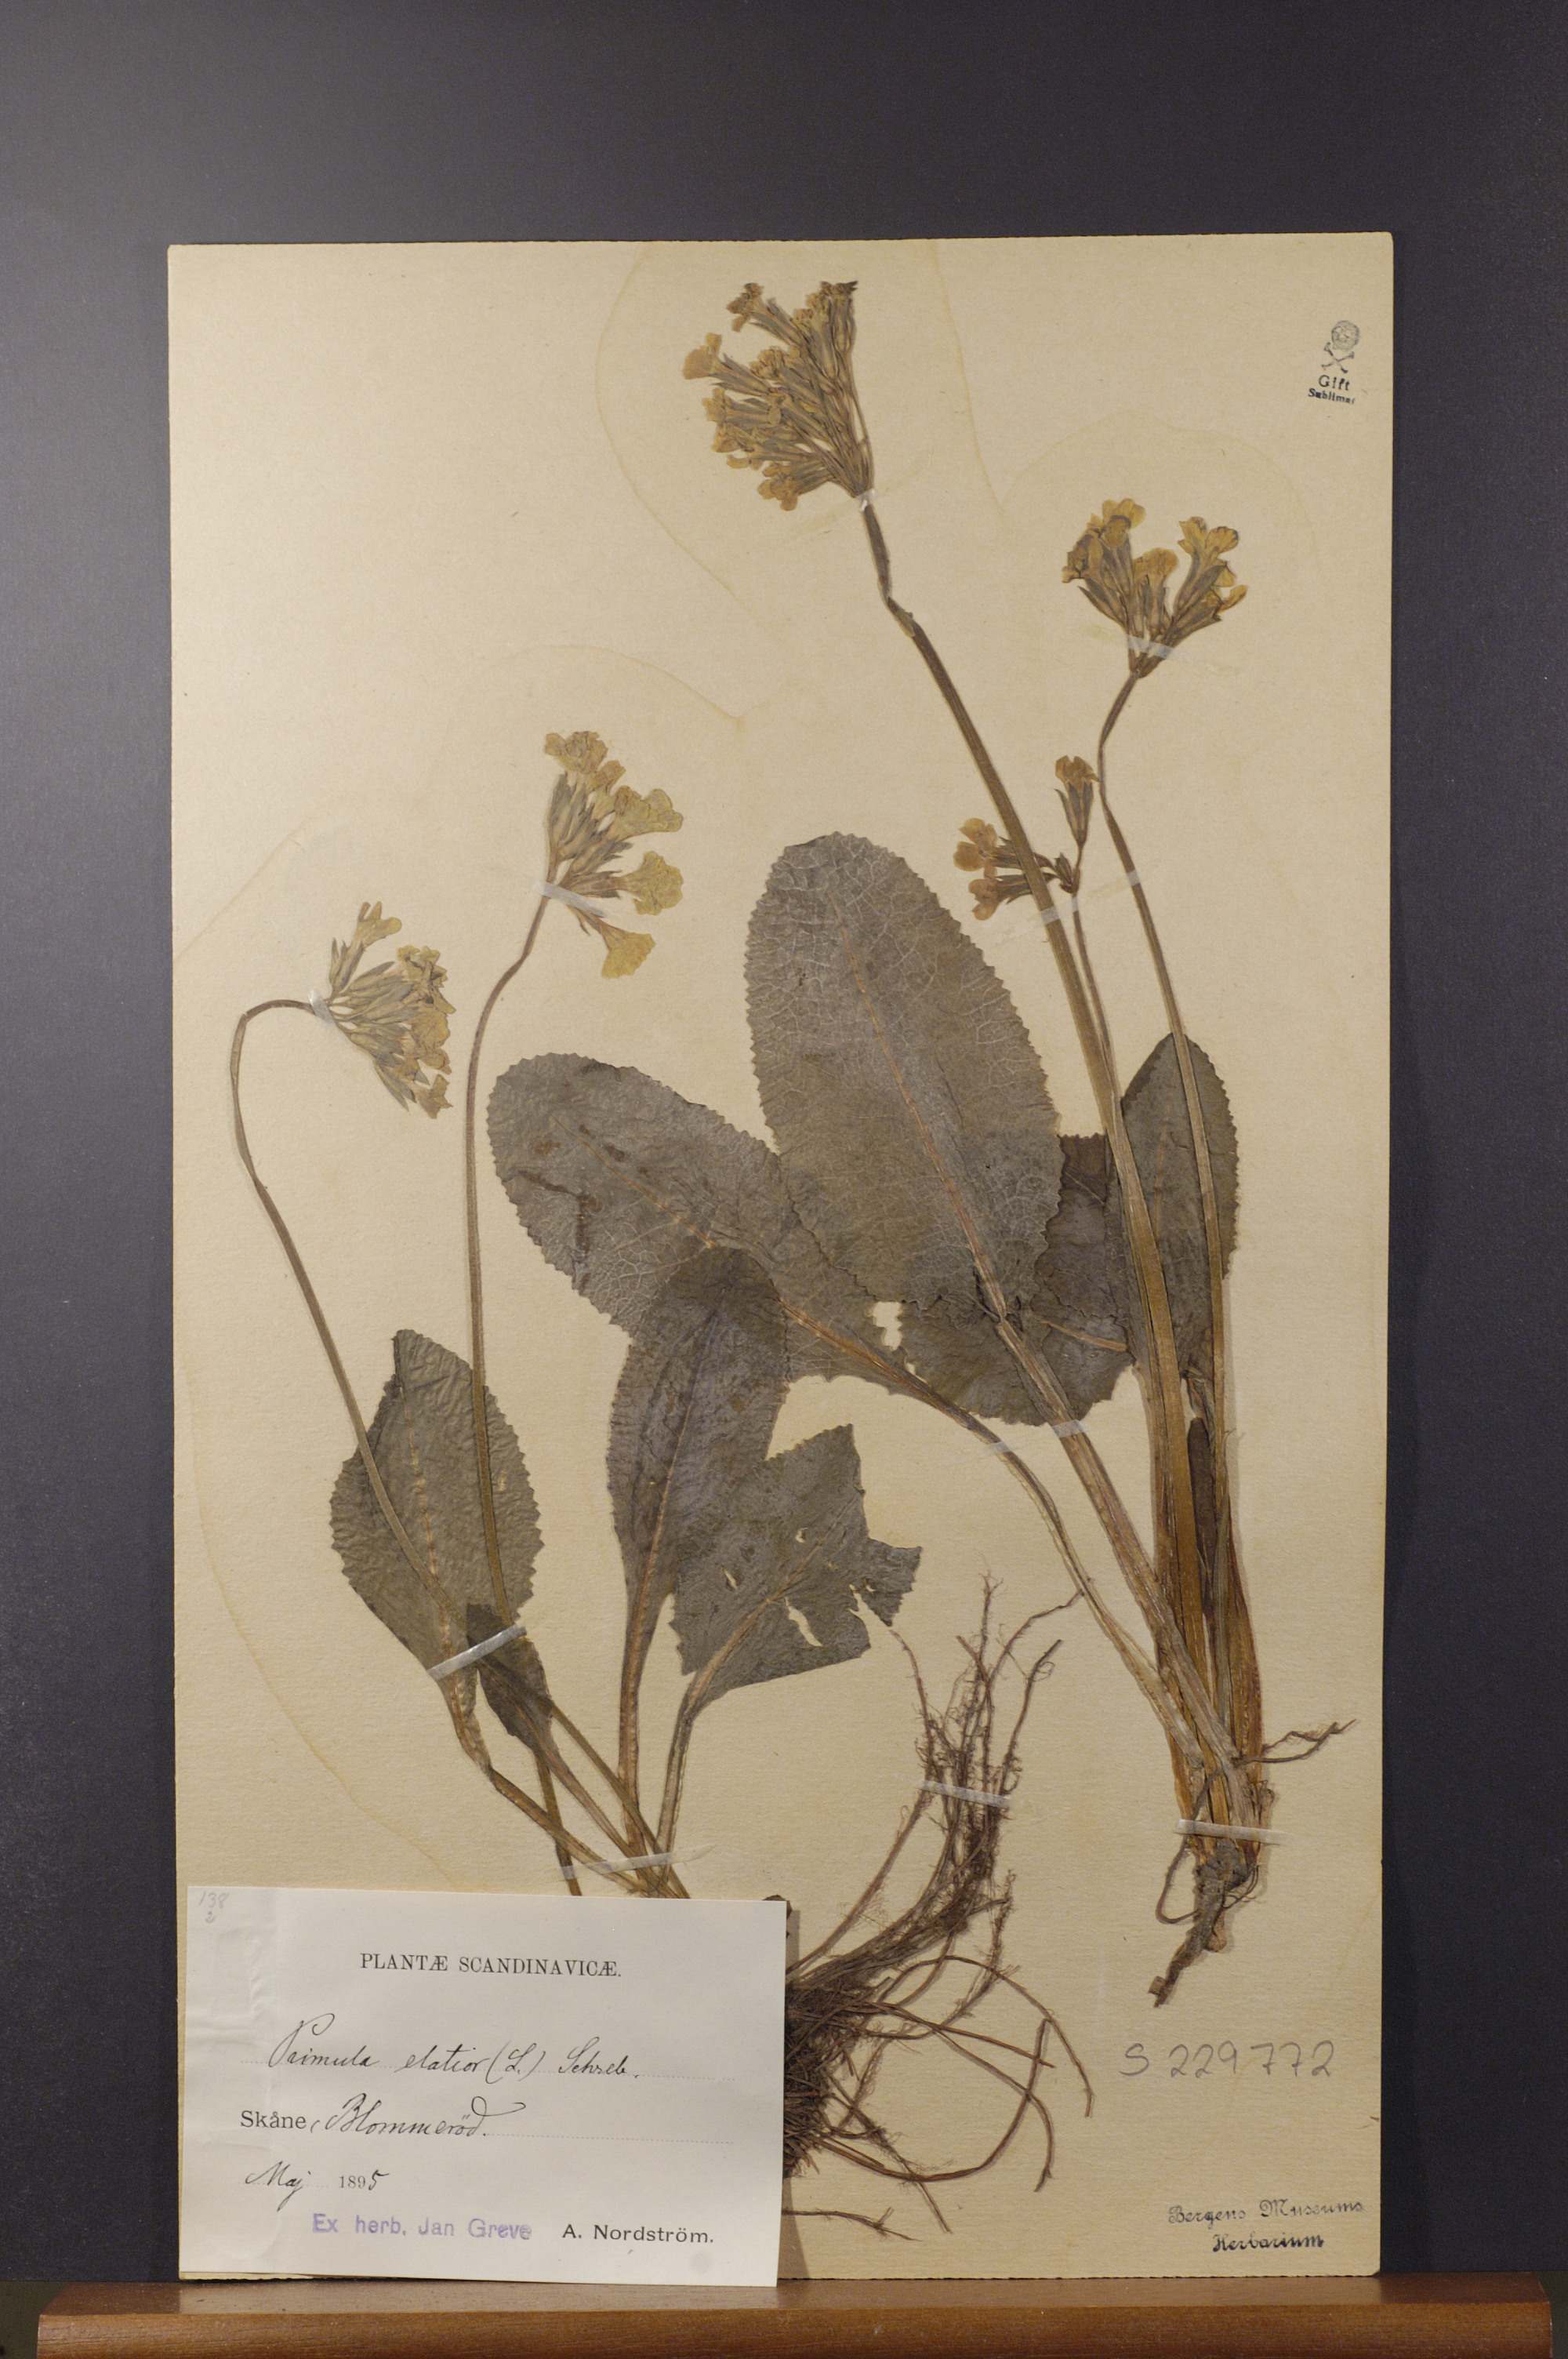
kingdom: Plantae
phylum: Tracheophyta
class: Magnoliopsida
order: Ericales
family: Primulaceae
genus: Primula
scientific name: Primula elatior
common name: Oxlip
